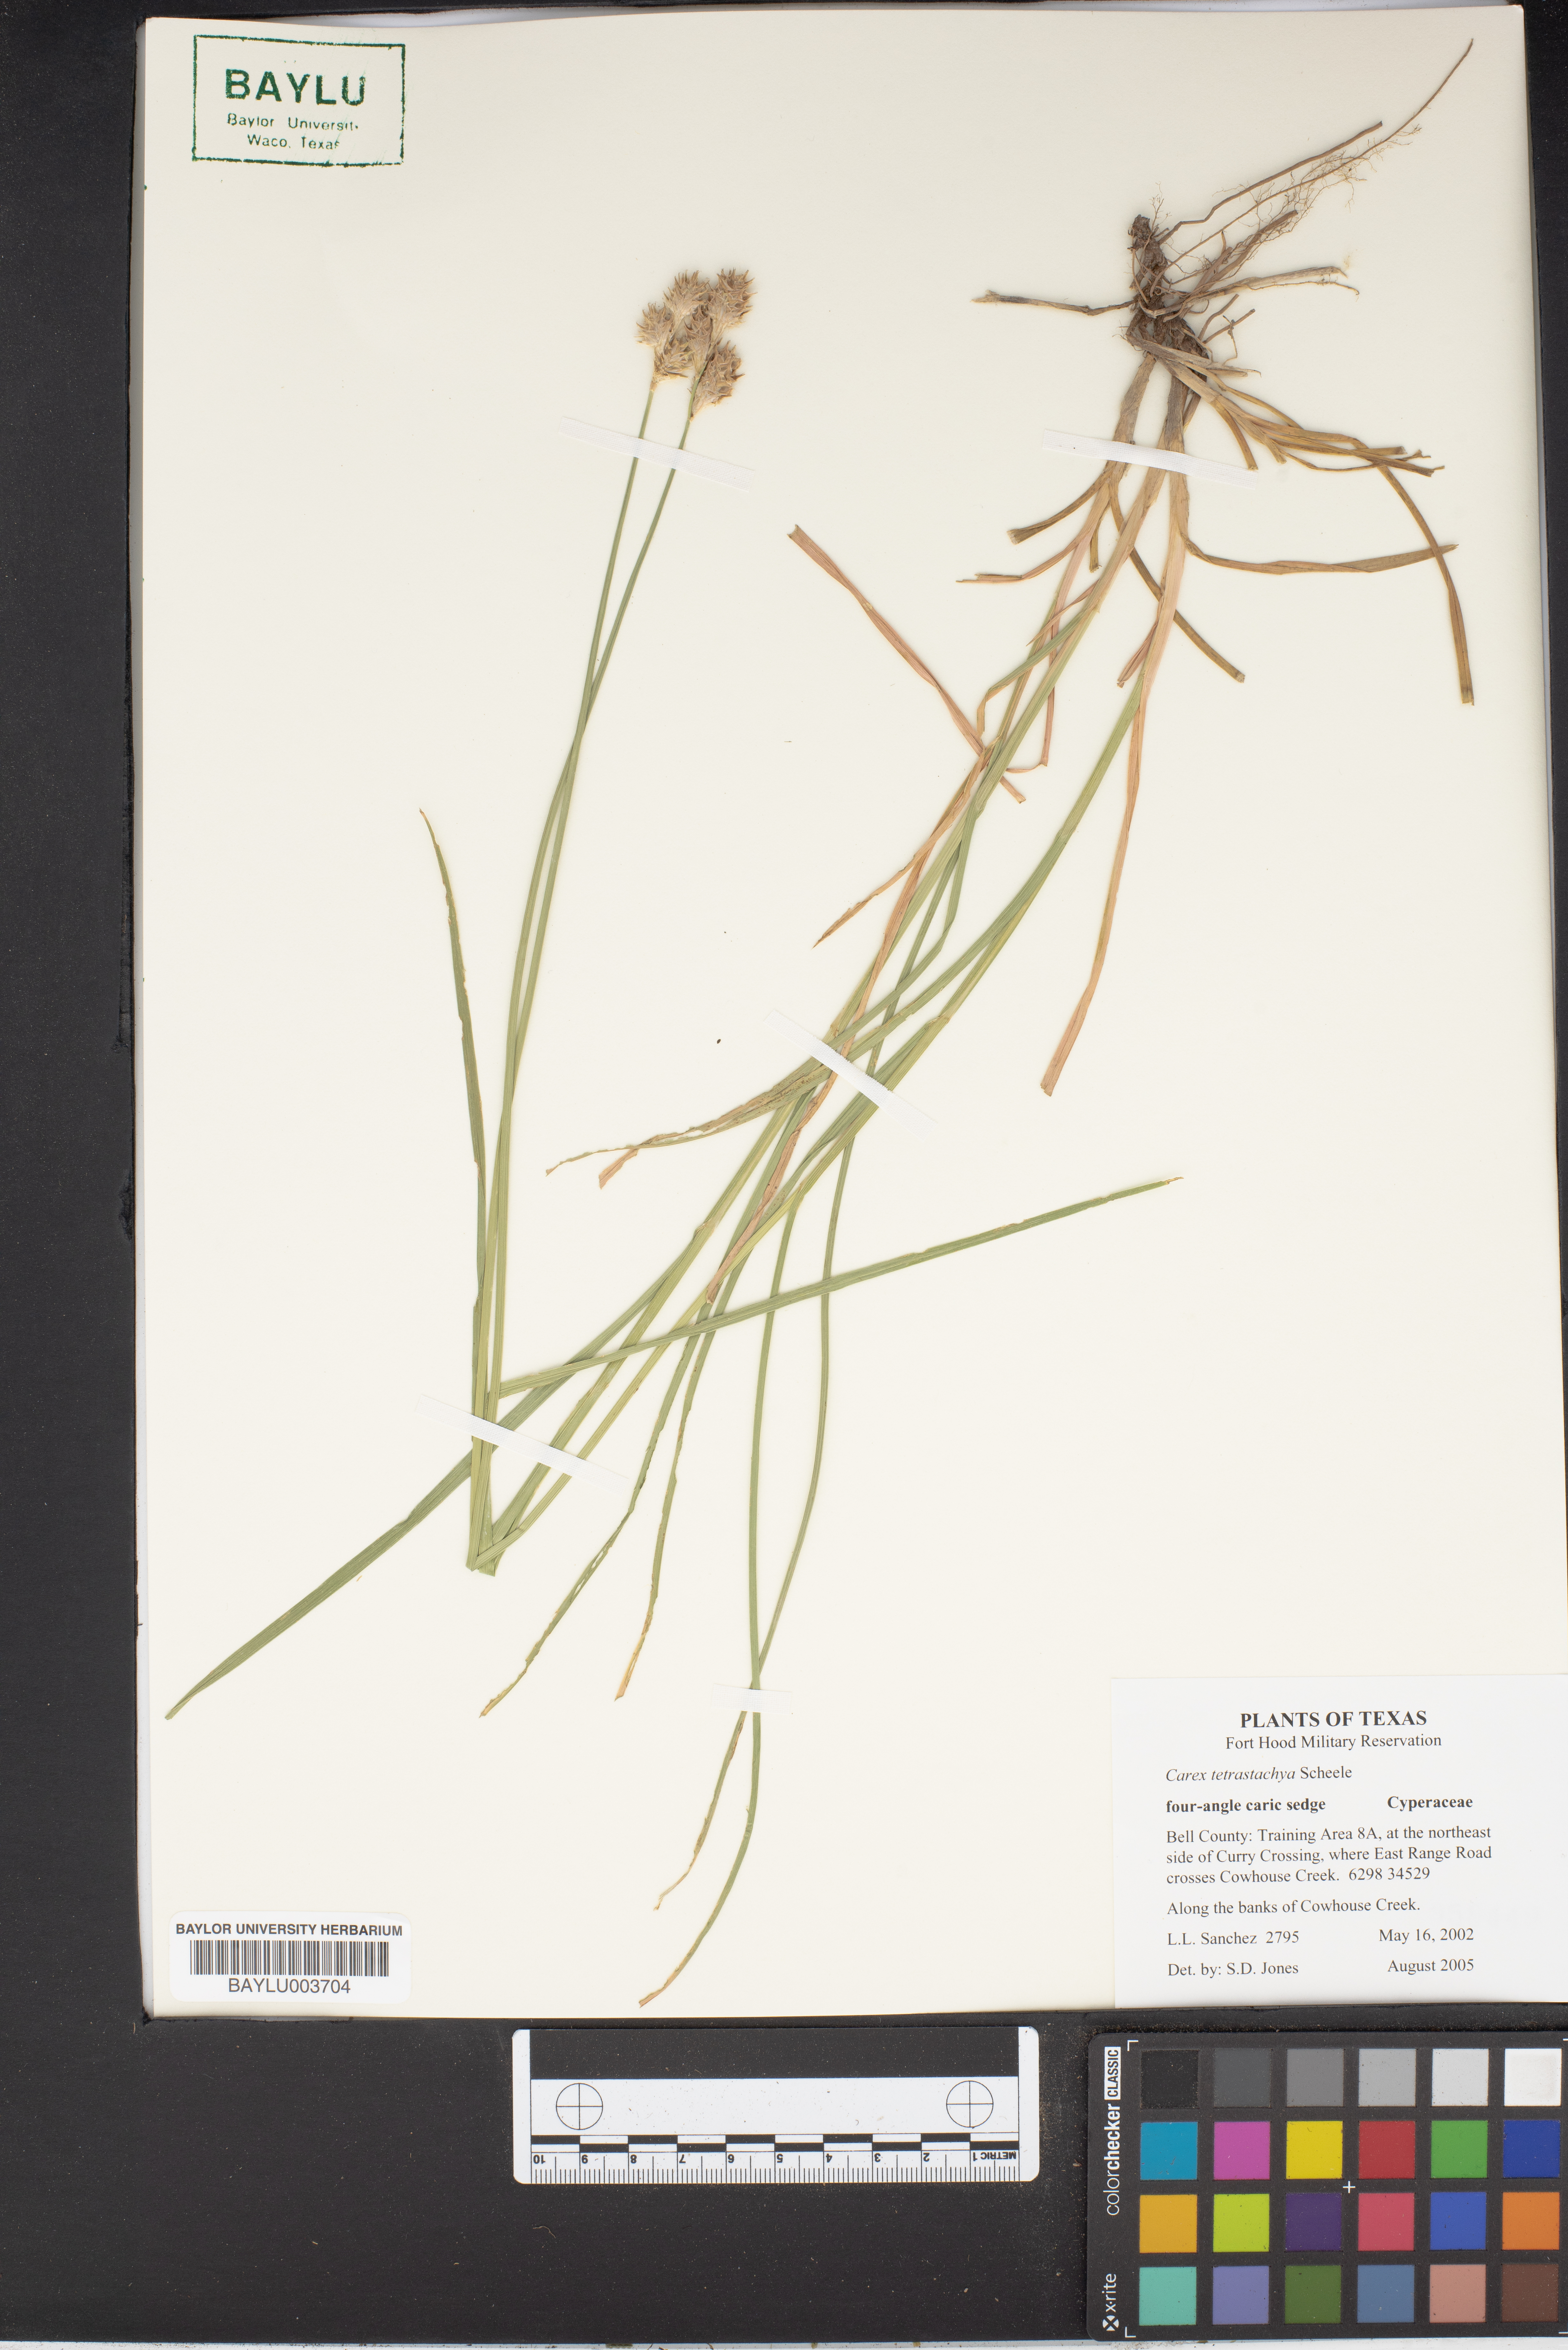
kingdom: Plantae
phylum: Tracheophyta
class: Liliopsida
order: Poales
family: Cyperaceae
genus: Carex
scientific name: Carex tetrastachya
